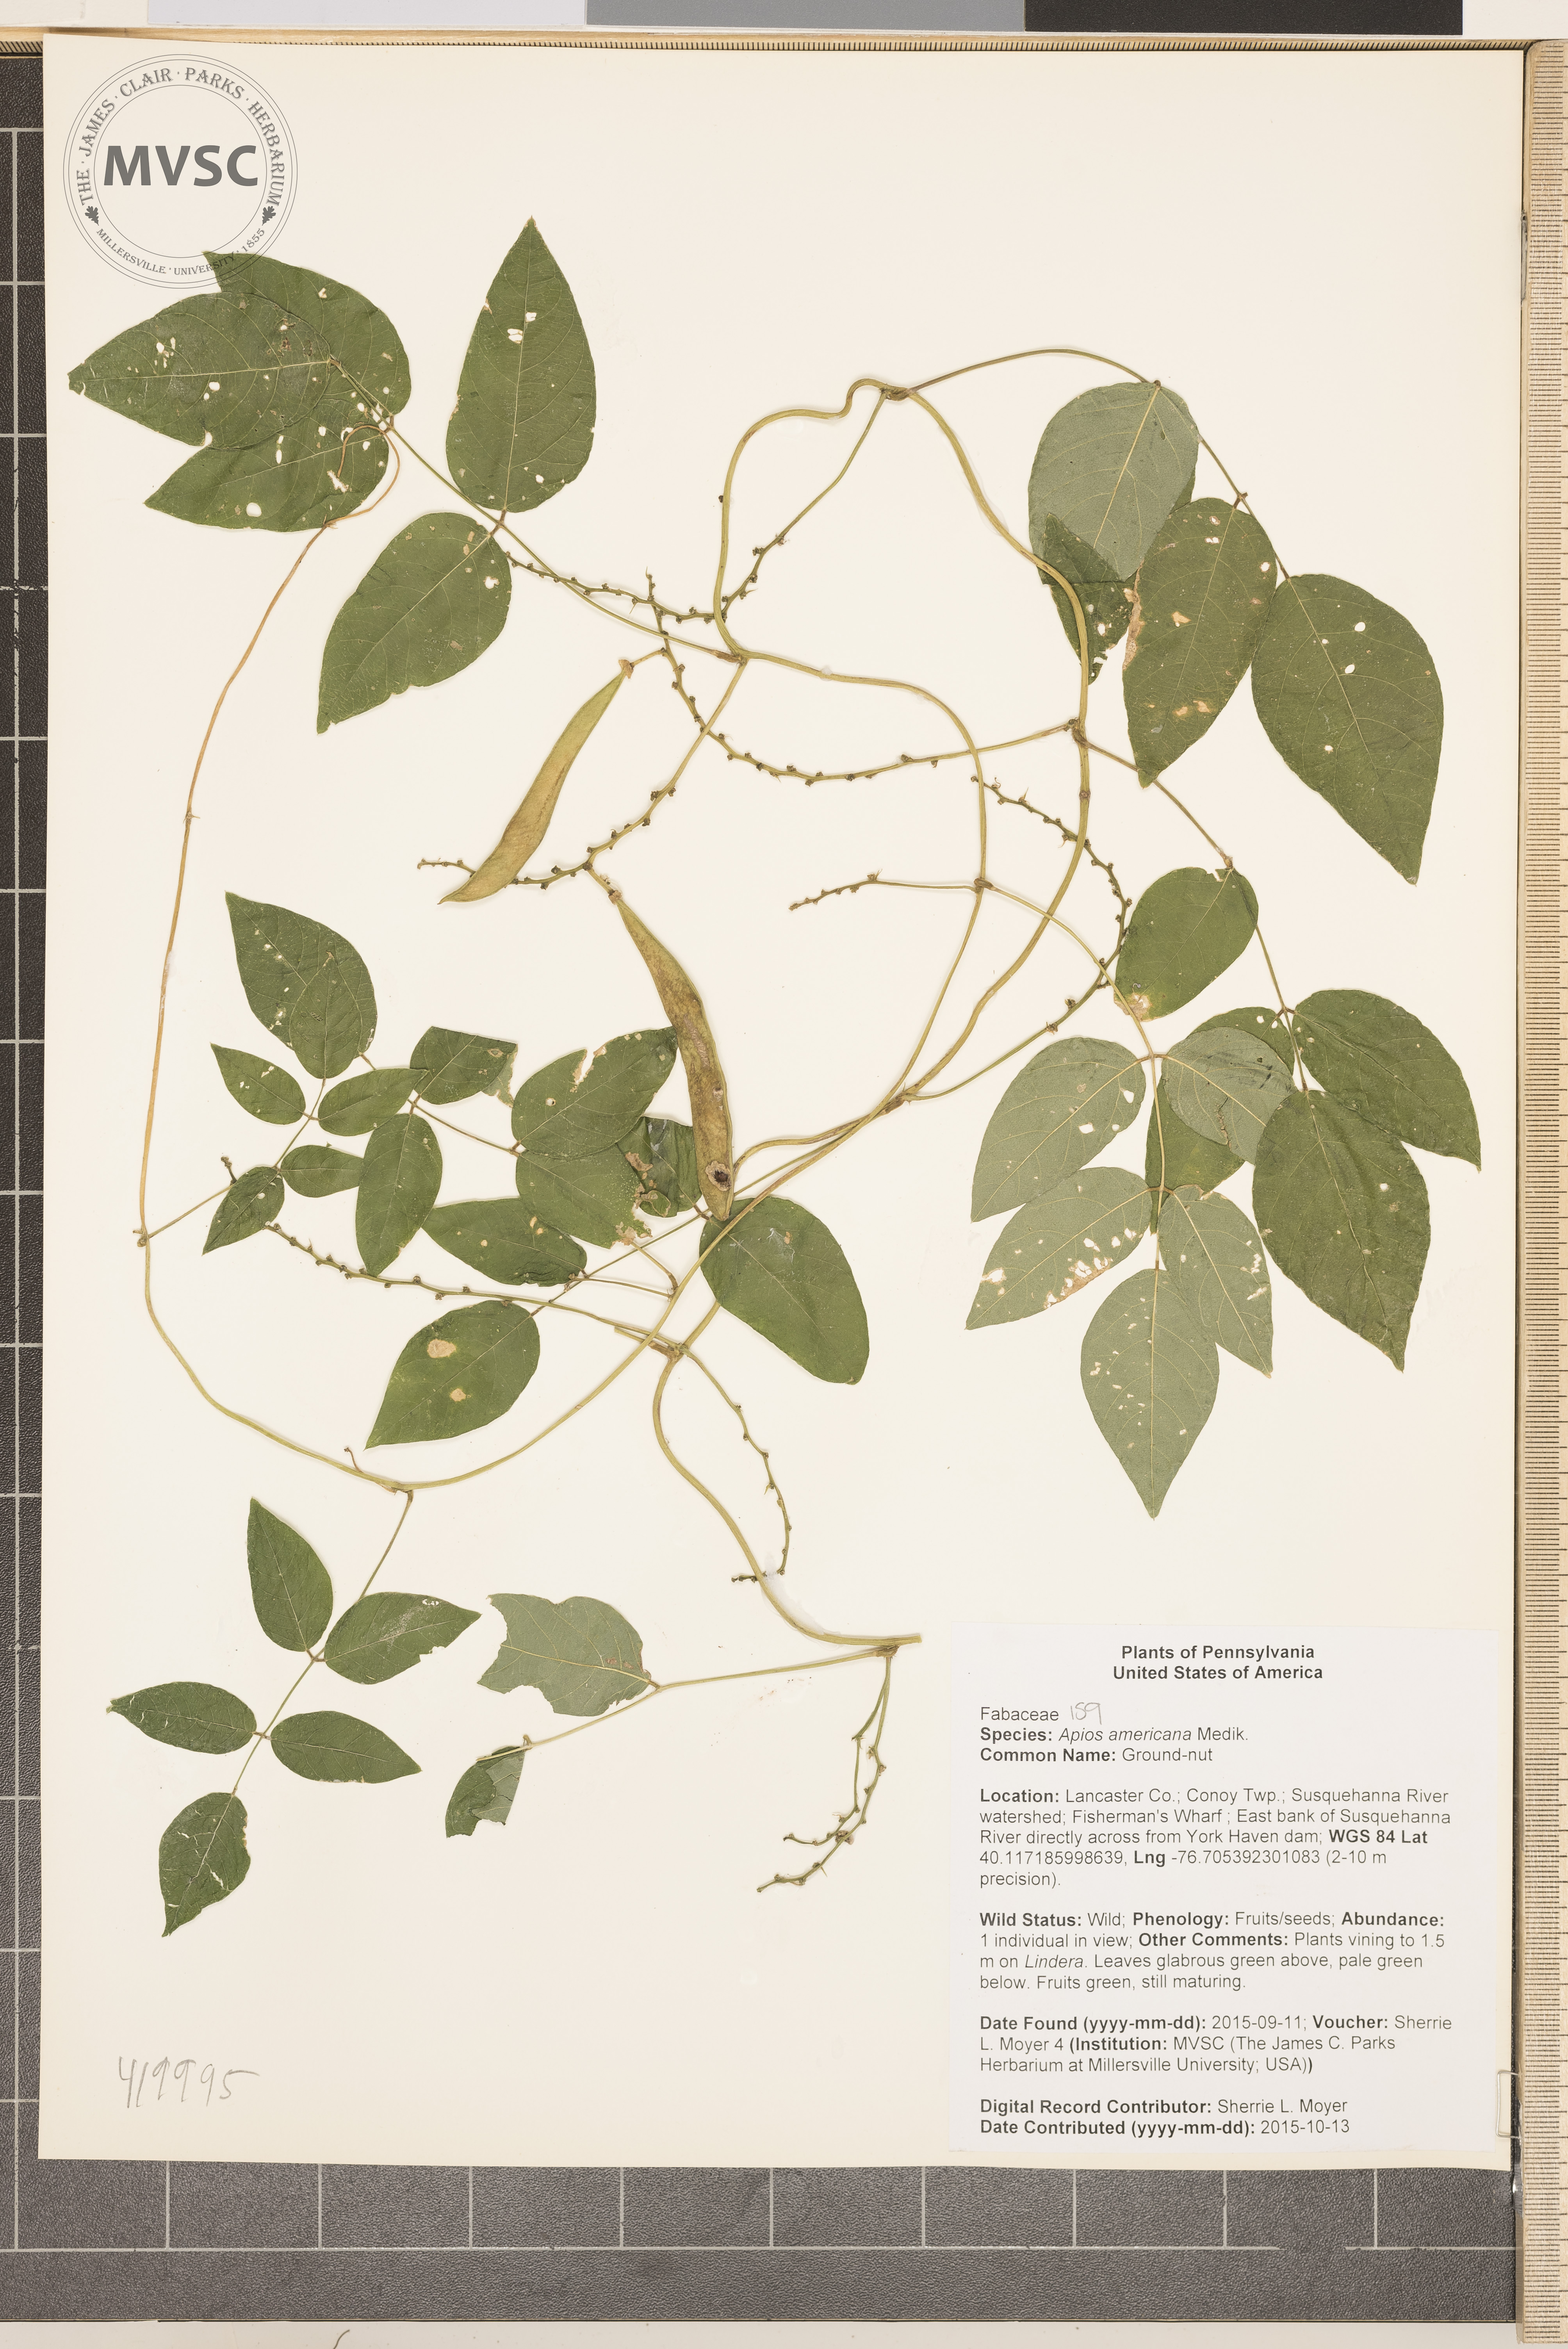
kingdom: Plantae
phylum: Tracheophyta
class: Magnoliopsida
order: Fabales
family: Fabaceae
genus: Apios
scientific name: Apios americana
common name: Ground-nut
